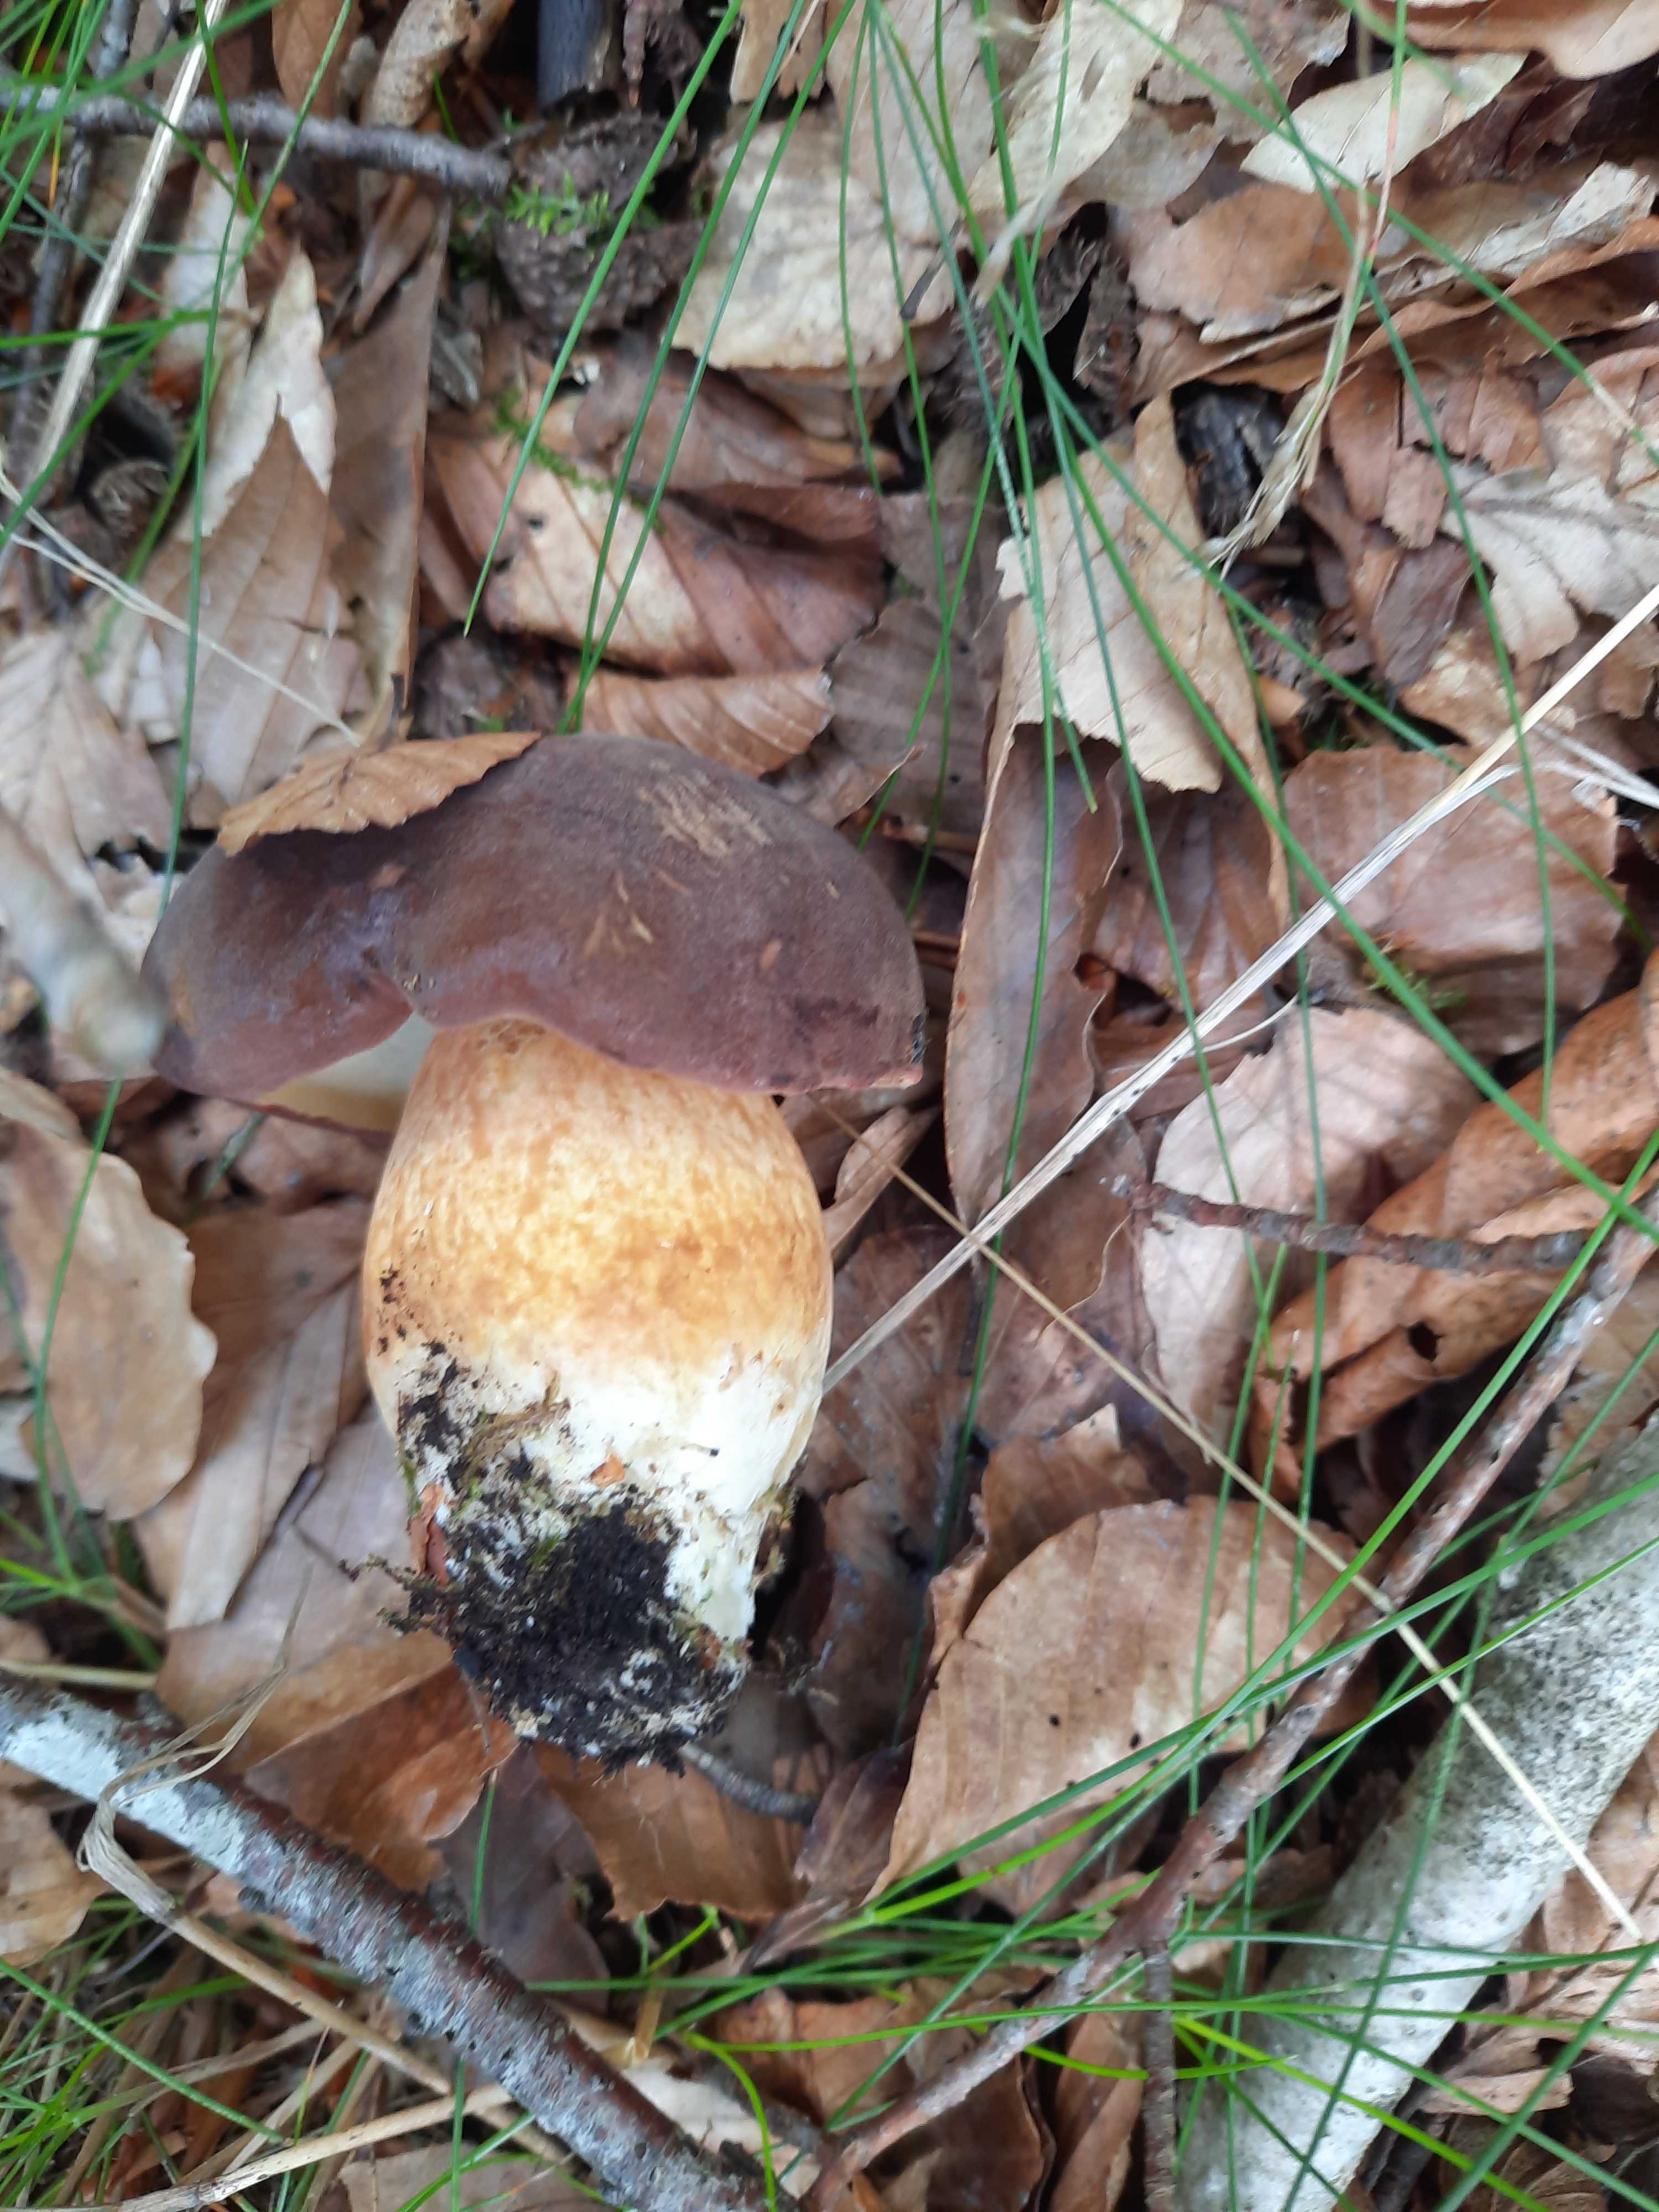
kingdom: Fungi
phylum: Basidiomycota
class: Agaricomycetes
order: Boletales
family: Boletaceae
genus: Imleria
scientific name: Imleria badia
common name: brunstokket rørhat
